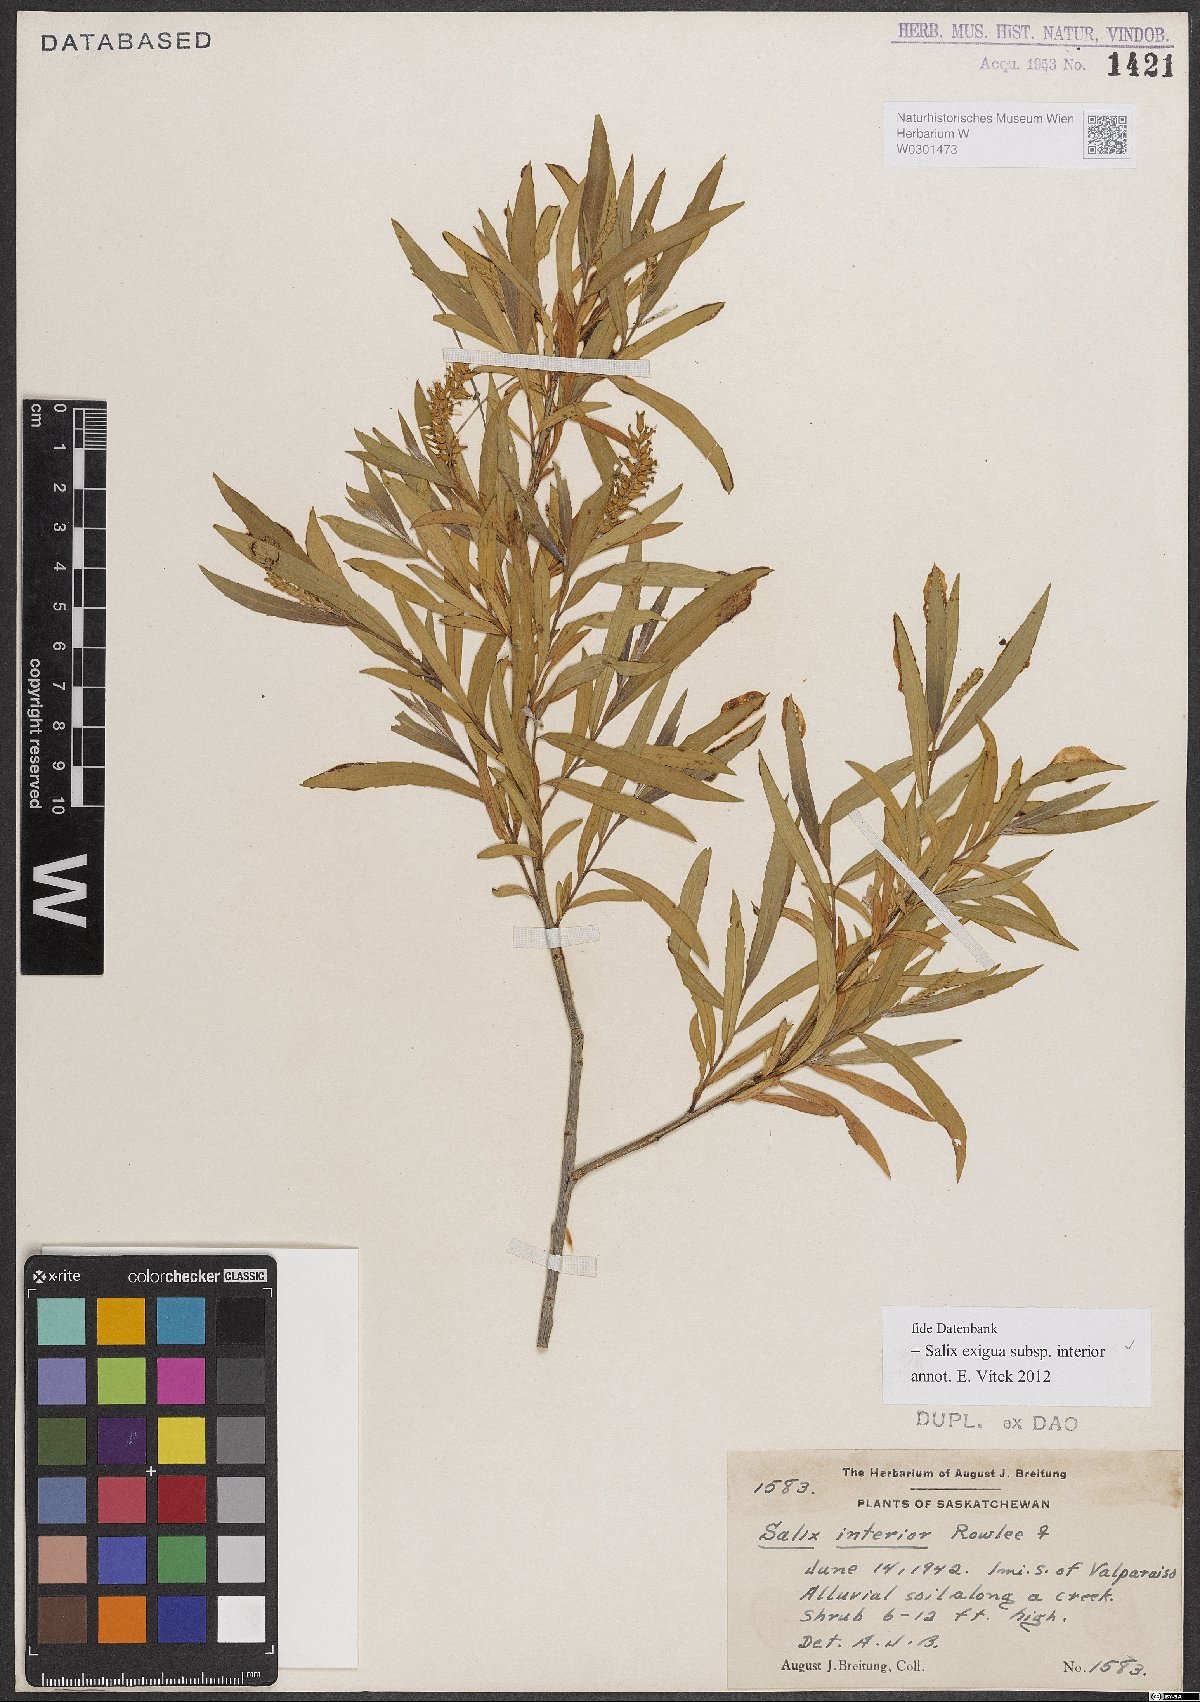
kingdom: Plantae
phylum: Tracheophyta
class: Magnoliopsida
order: Malpighiales
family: Salicaceae
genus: Salix
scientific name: Salix interior
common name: Sandbar willow
